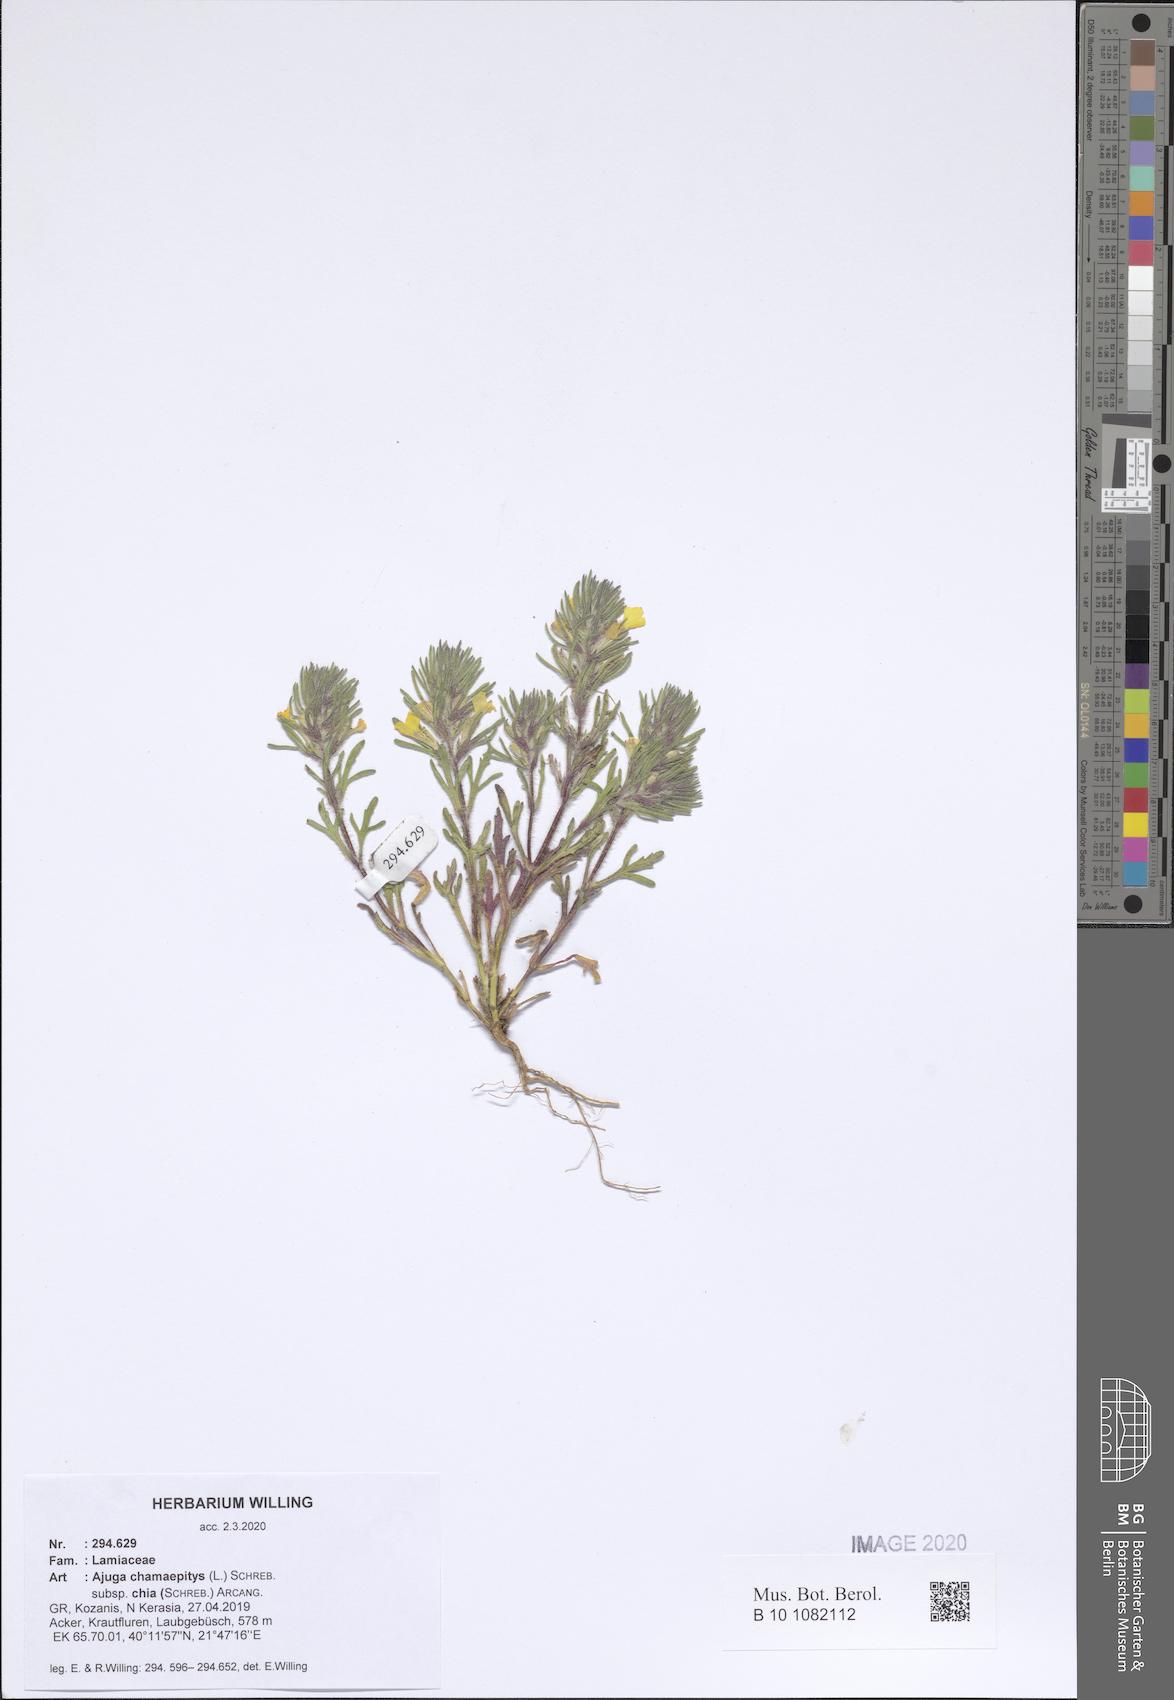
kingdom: Plantae
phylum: Tracheophyta
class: Magnoliopsida
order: Lamiales
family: Lamiaceae
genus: Ajuga
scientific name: Ajuga chamaepitys
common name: Ground-pine
